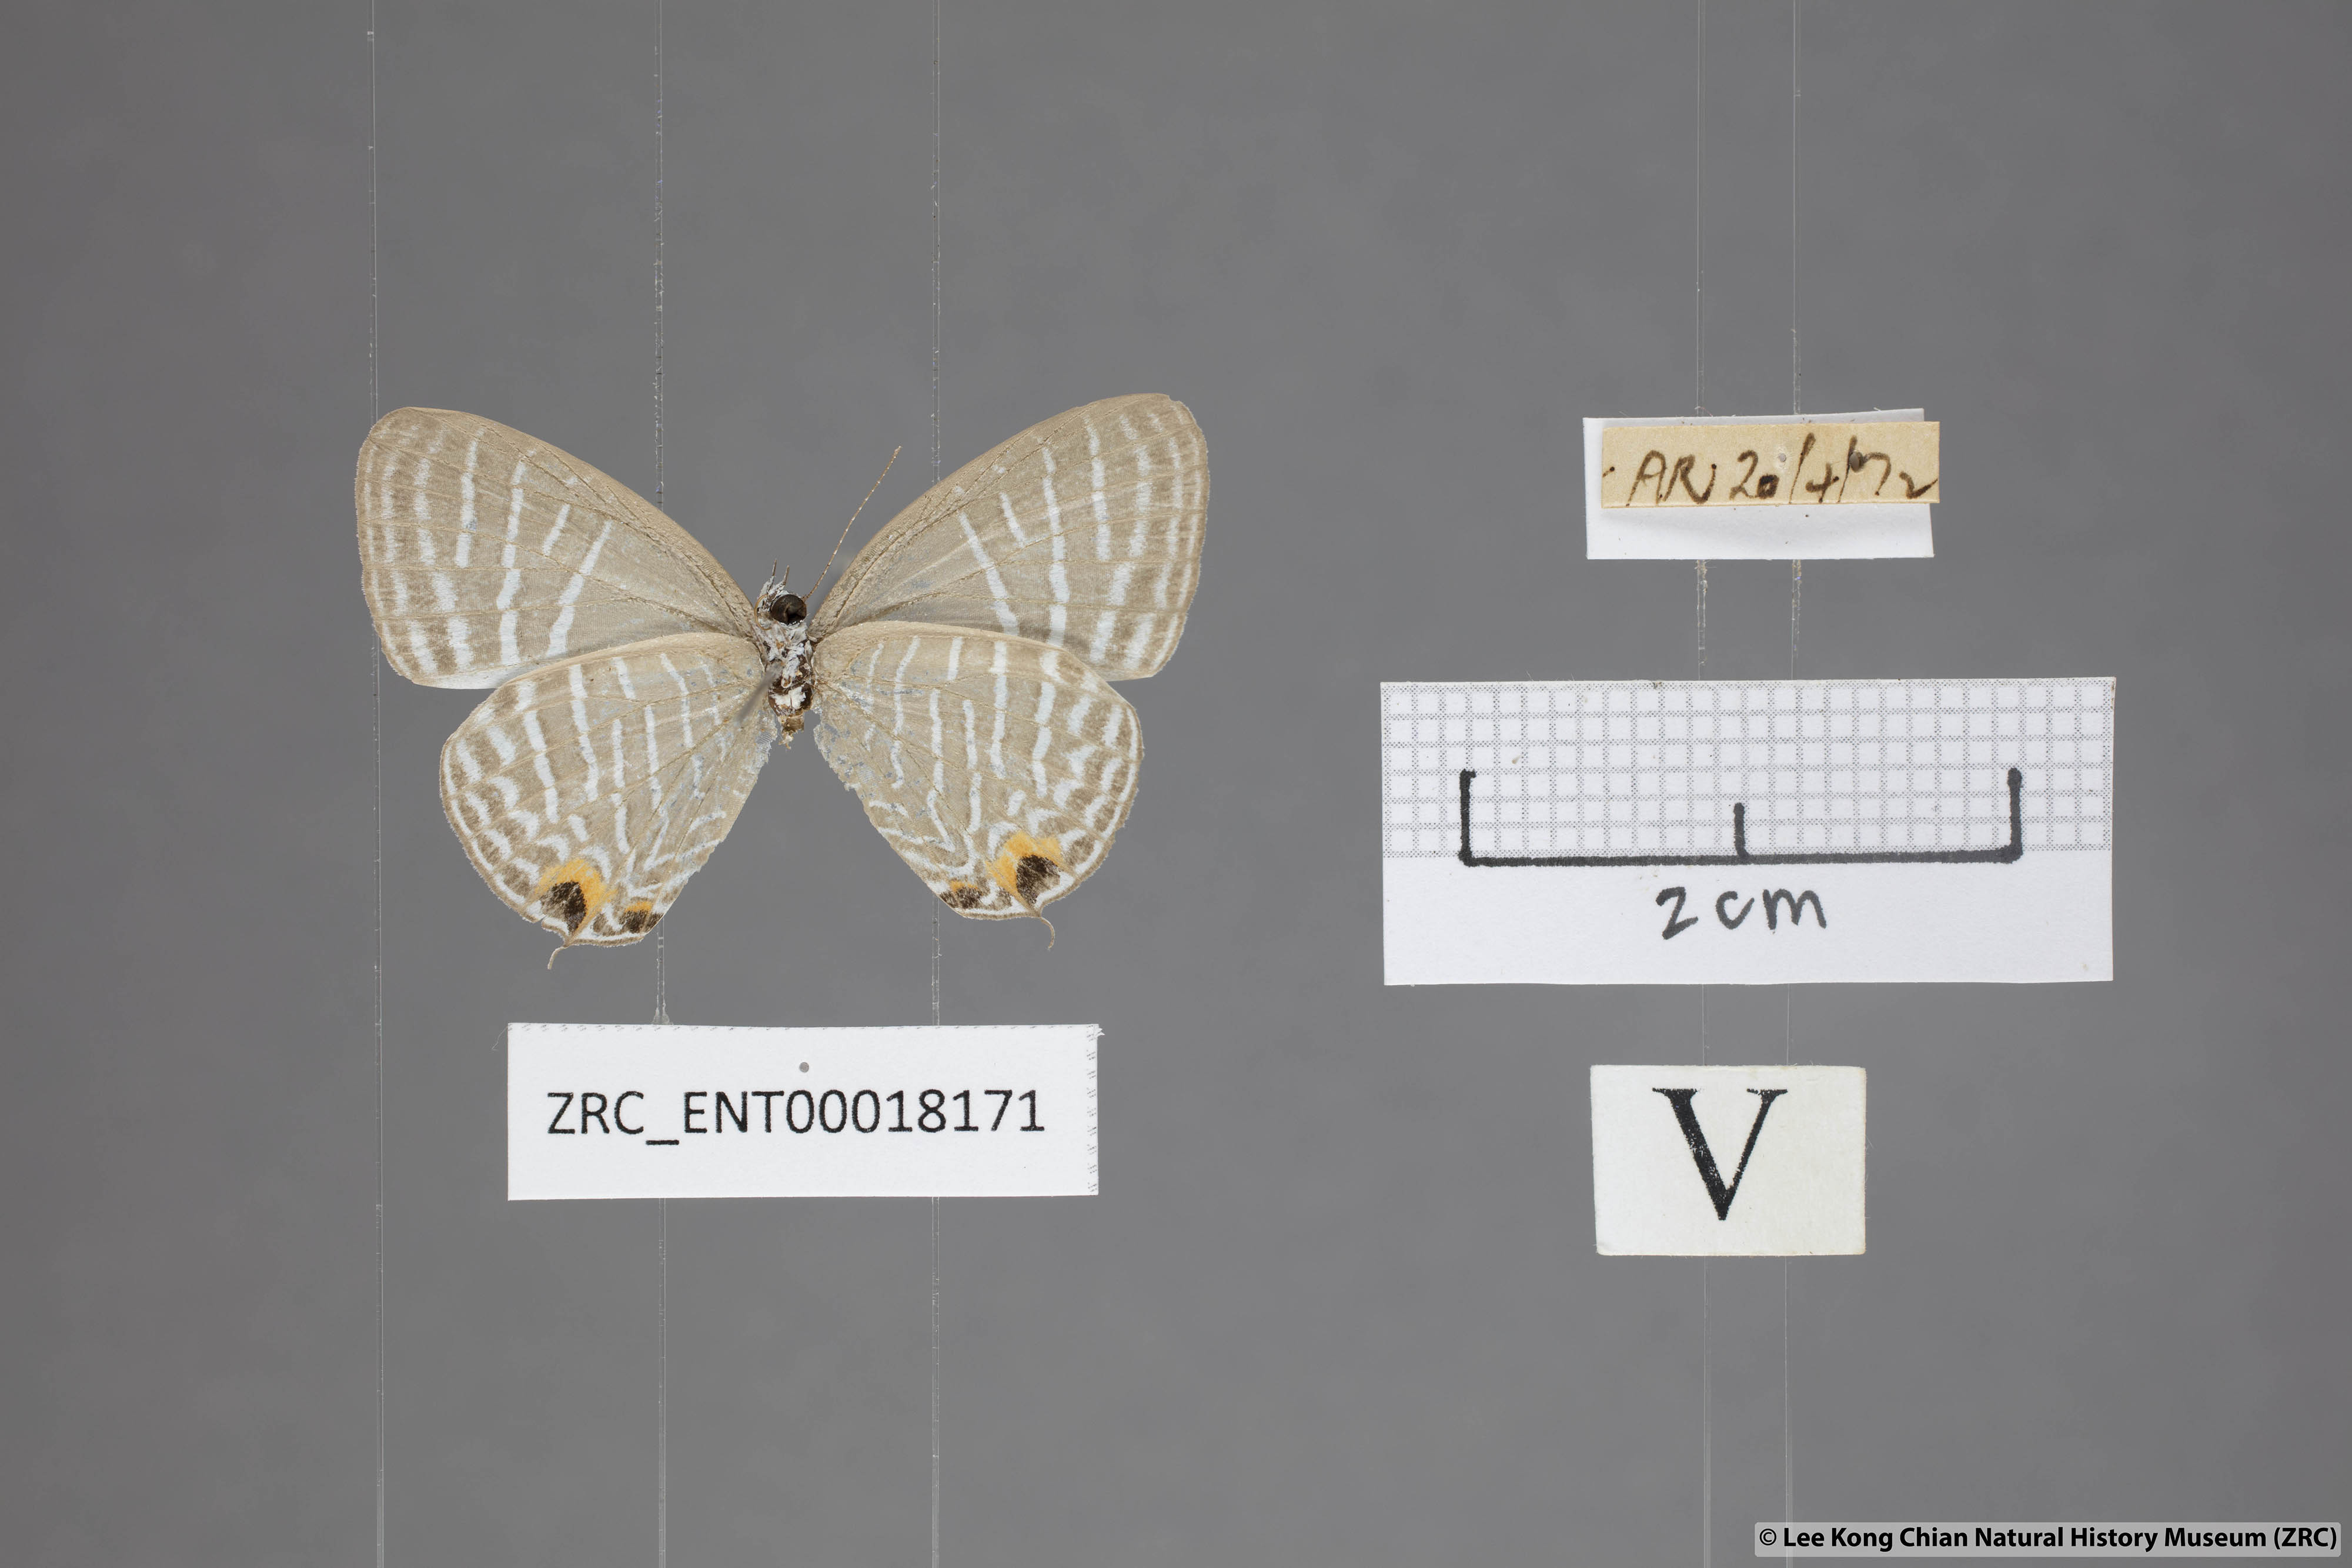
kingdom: Animalia
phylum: Arthropoda
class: Insecta
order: Lepidoptera
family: Lycaenidae
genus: Jamides
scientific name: Jamides pura
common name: White cerulean
